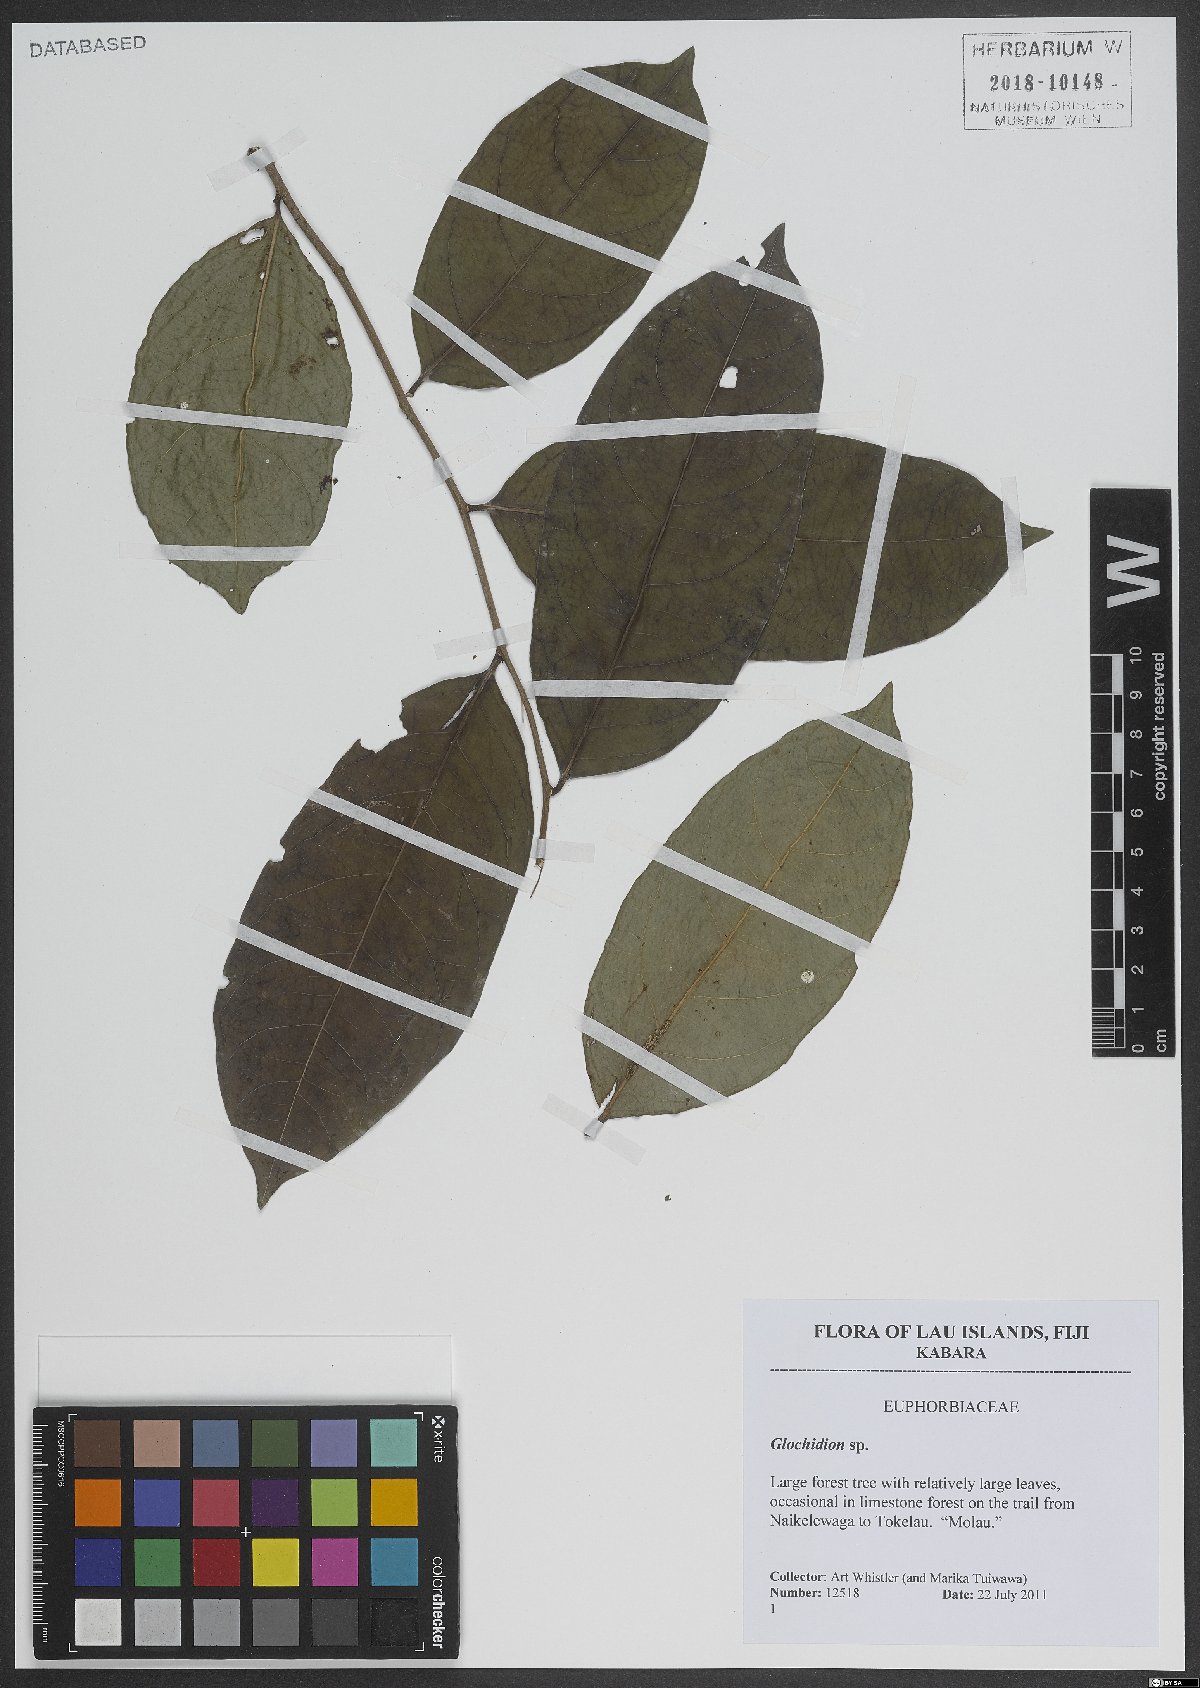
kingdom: Plantae
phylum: Tracheophyta
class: Magnoliopsida
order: Malpighiales
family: Phyllanthaceae
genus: Glochidion
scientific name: Glochidion
